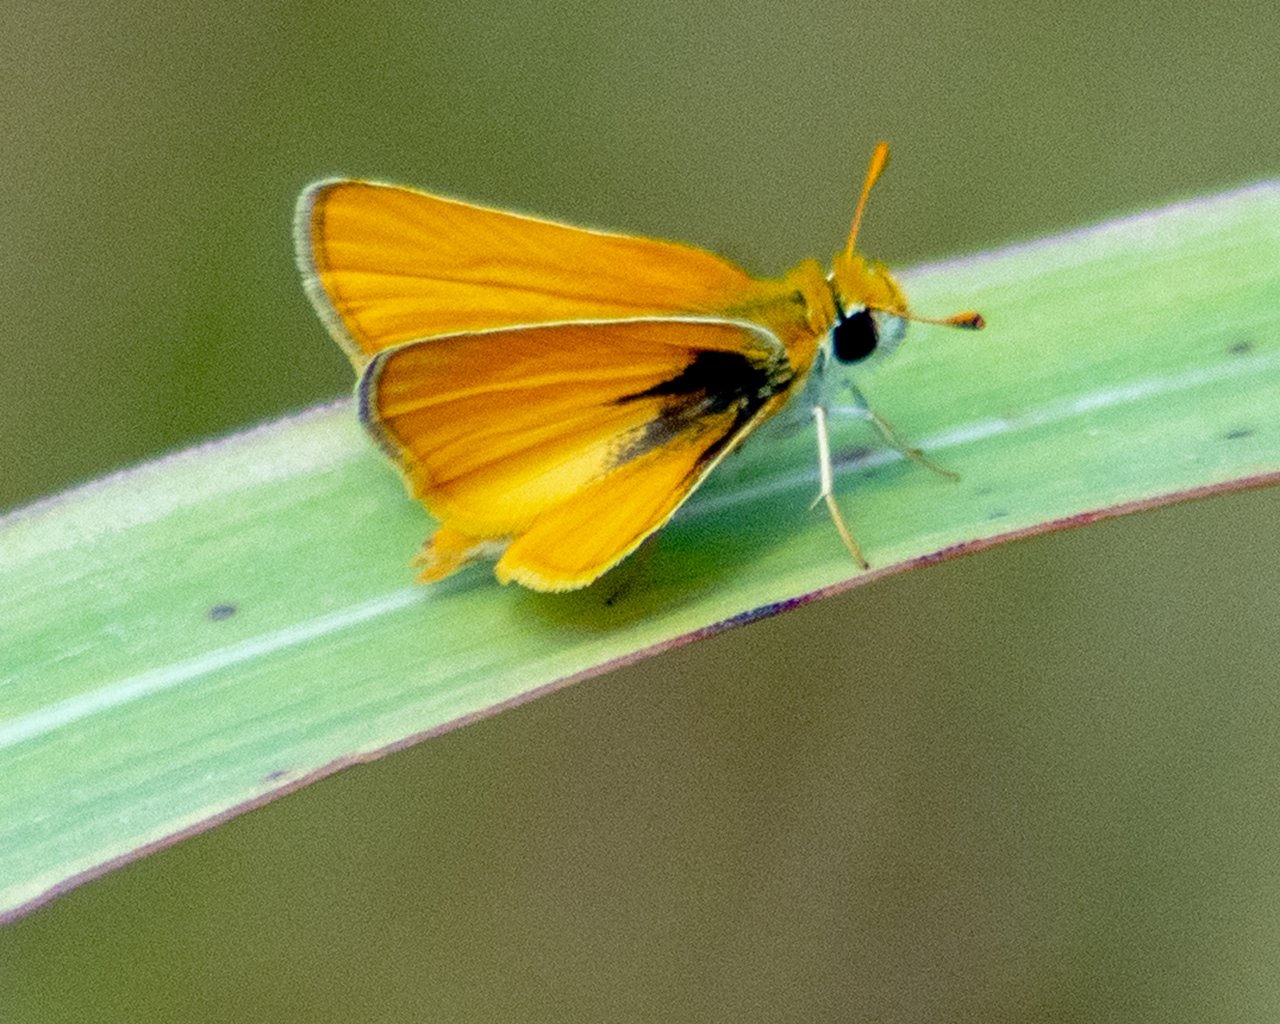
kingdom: Animalia
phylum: Arthropoda
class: Insecta
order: Lepidoptera
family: Hesperiidae
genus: Copaeodes
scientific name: Copaeodes minima
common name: Southern Skipperling
